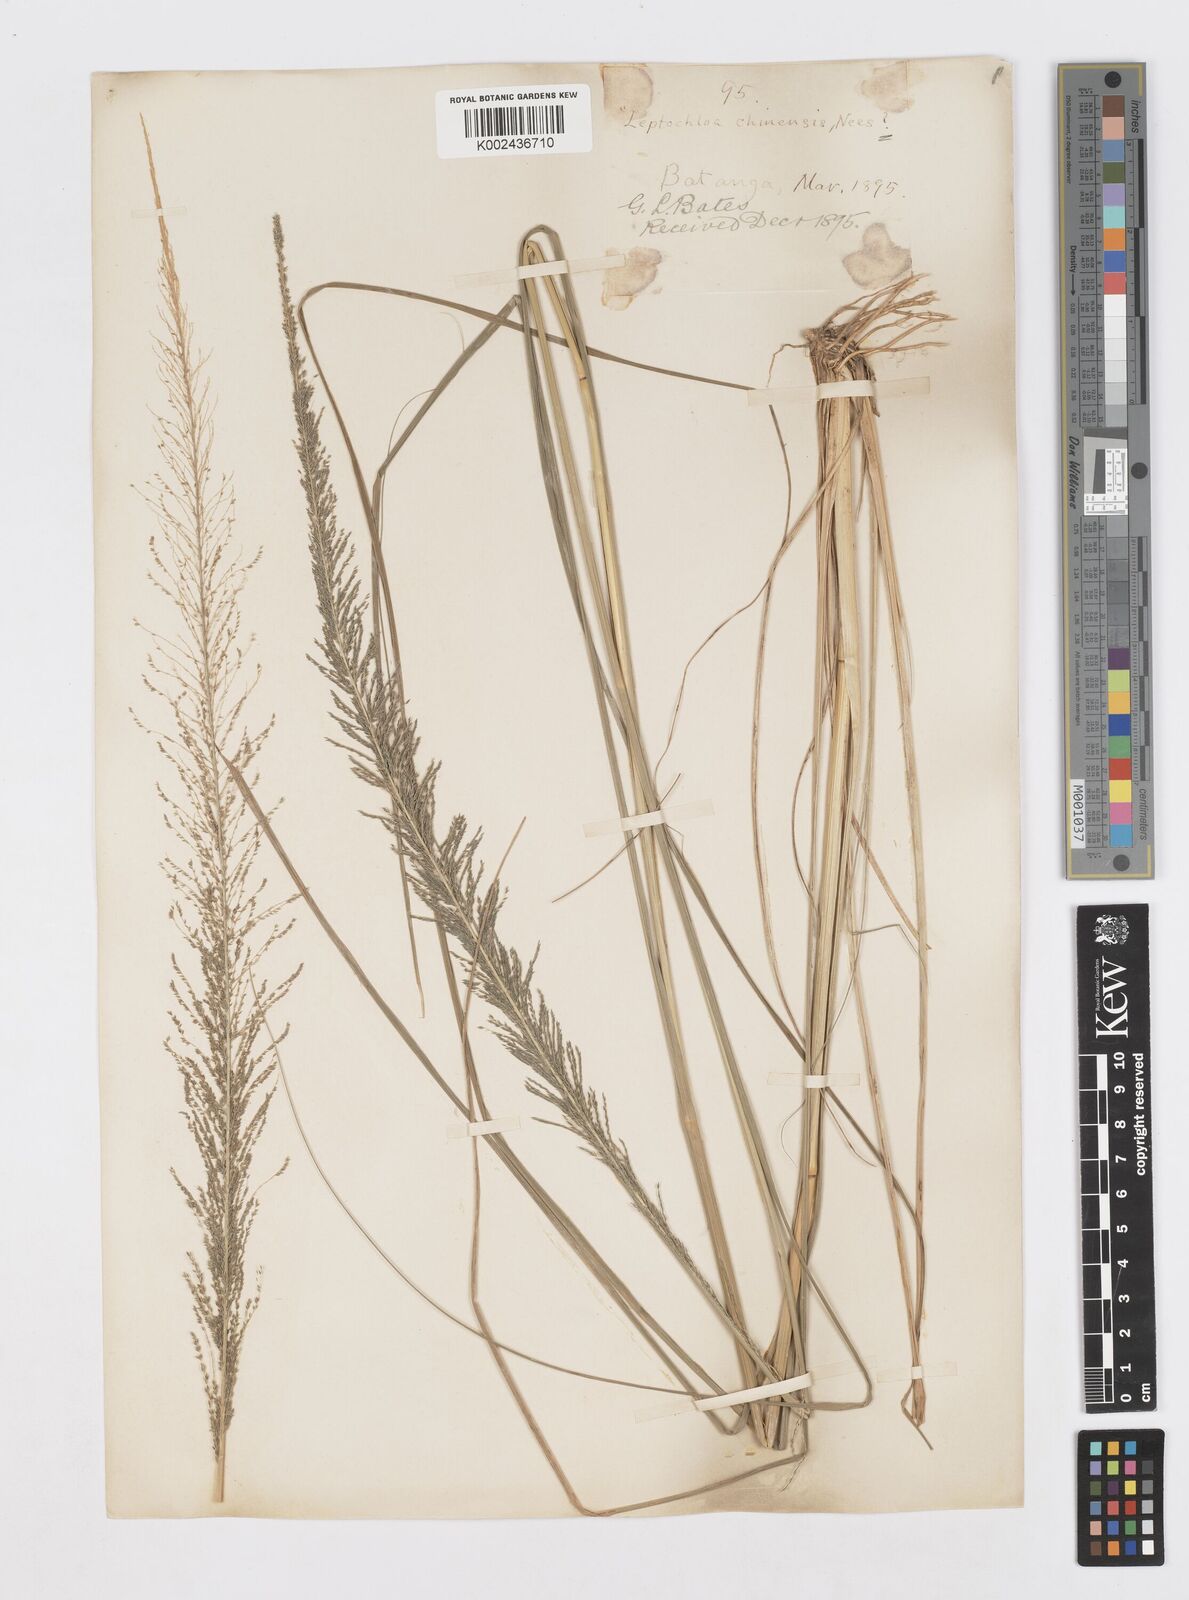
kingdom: Plantae
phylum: Tracheophyta
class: Liliopsida
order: Poales
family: Poaceae
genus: Sporobolus
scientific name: Sporobolus pyramidalis
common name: West indian dropseed
